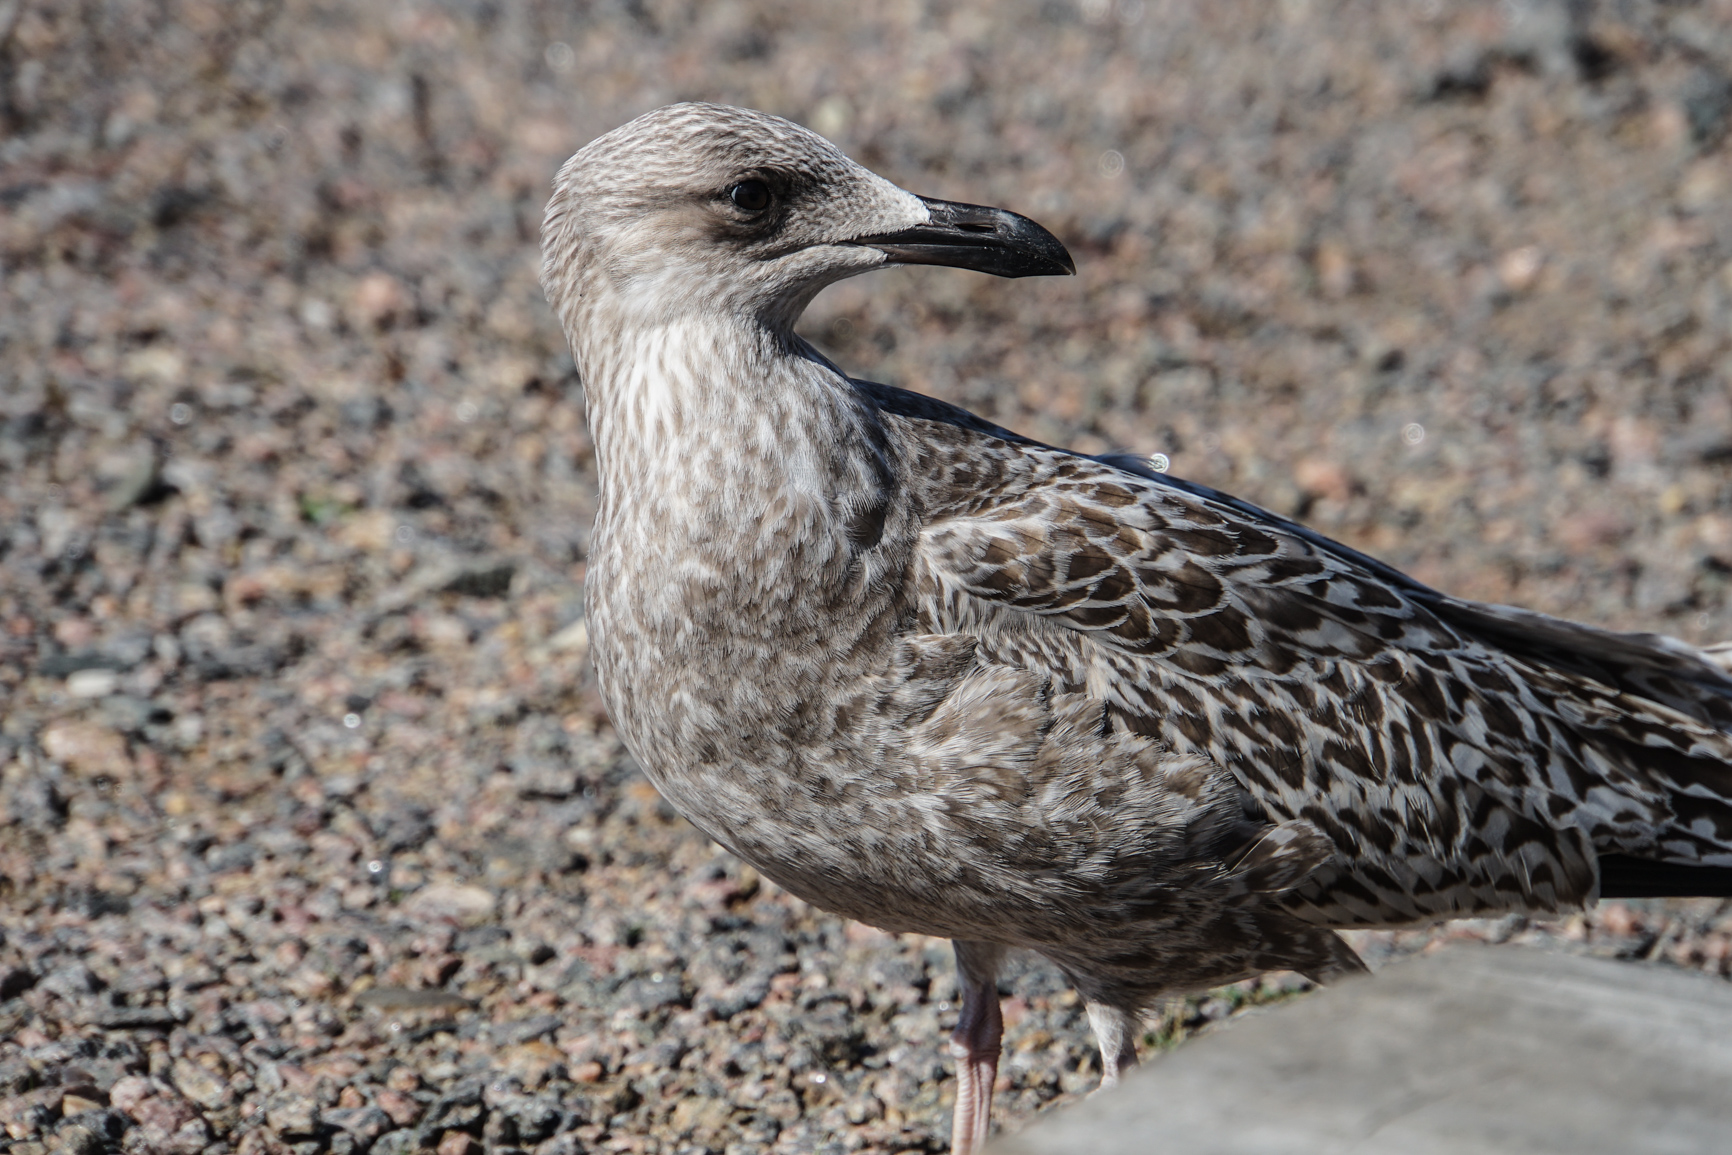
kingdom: Animalia
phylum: Chordata
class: Aves
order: Charadriiformes
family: Laridae
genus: Larus
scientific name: Larus marinus
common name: Great black-backed gull
